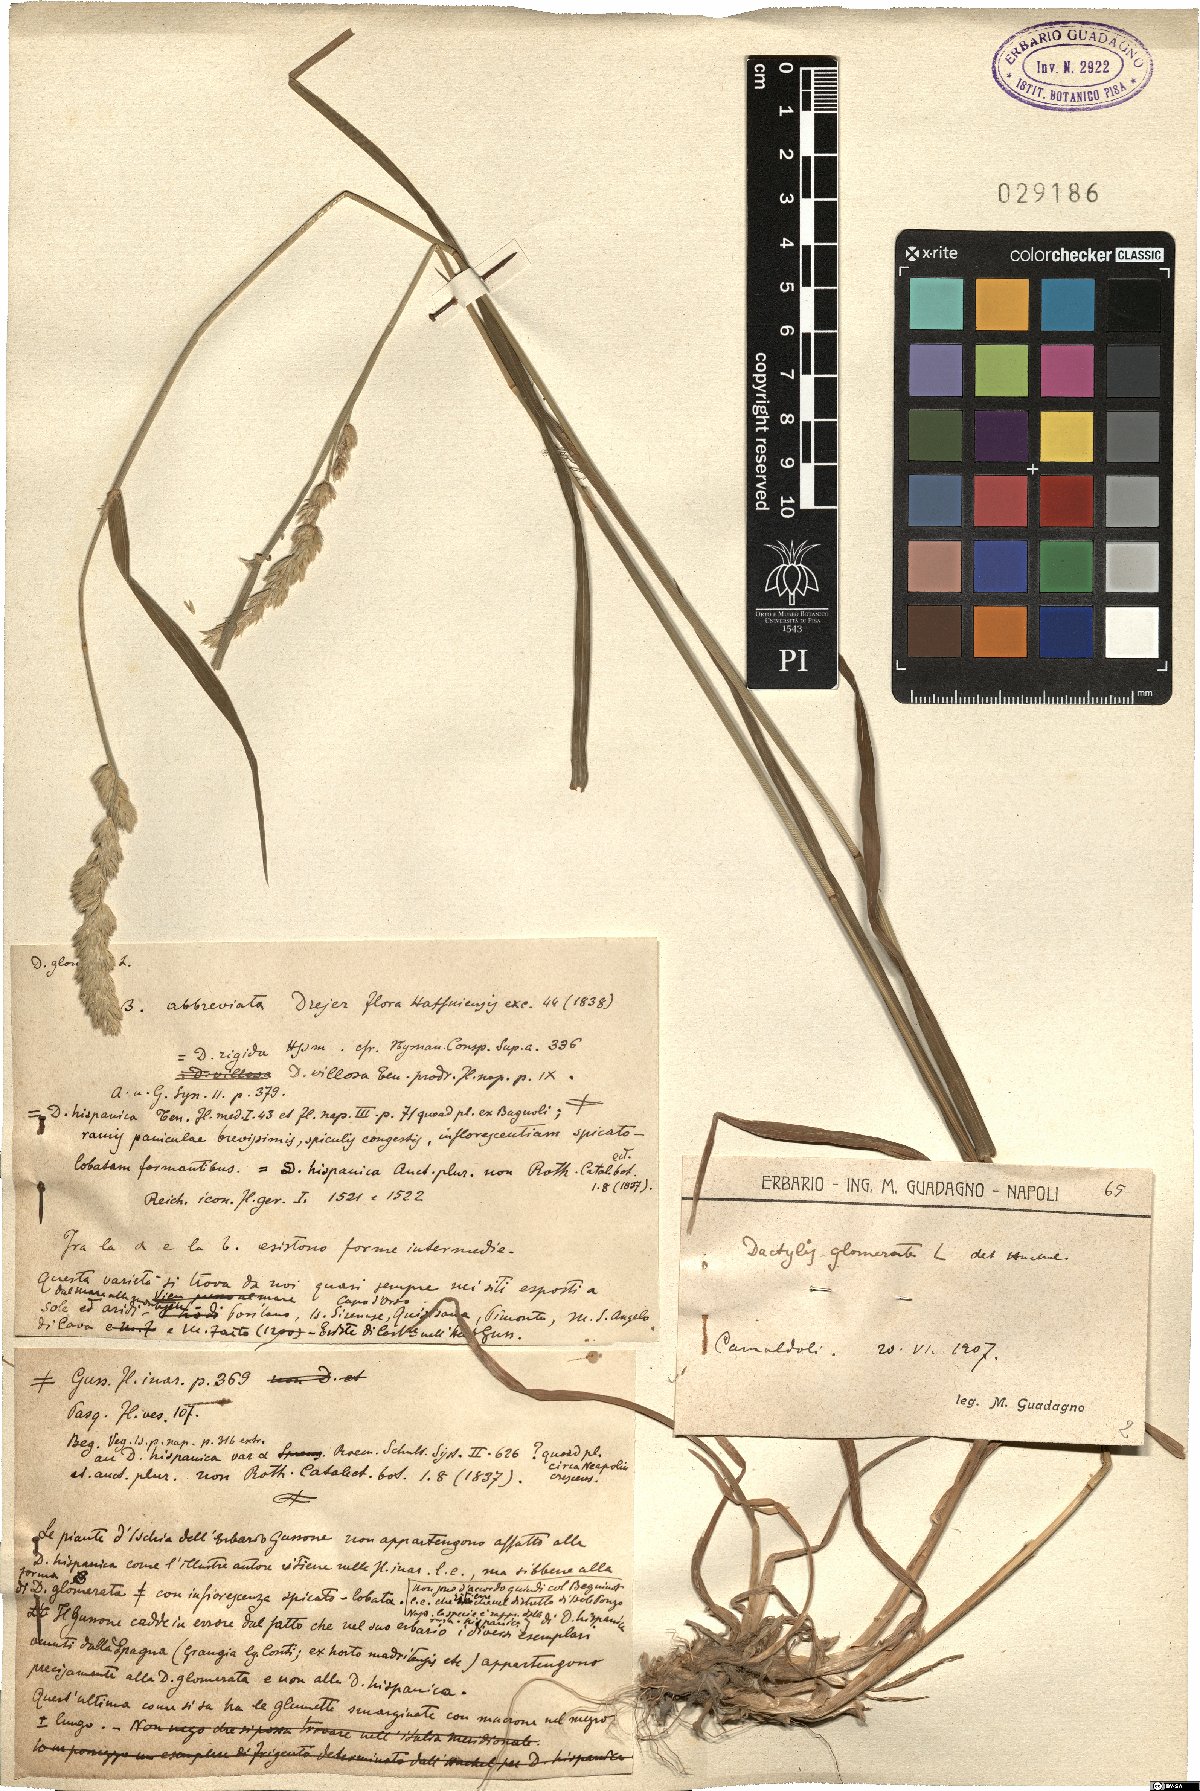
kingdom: Plantae
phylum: Tracheophyta
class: Liliopsida
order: Poales
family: Poaceae
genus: Dactylis
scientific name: Dactylis glomerata
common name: Orchardgrass
